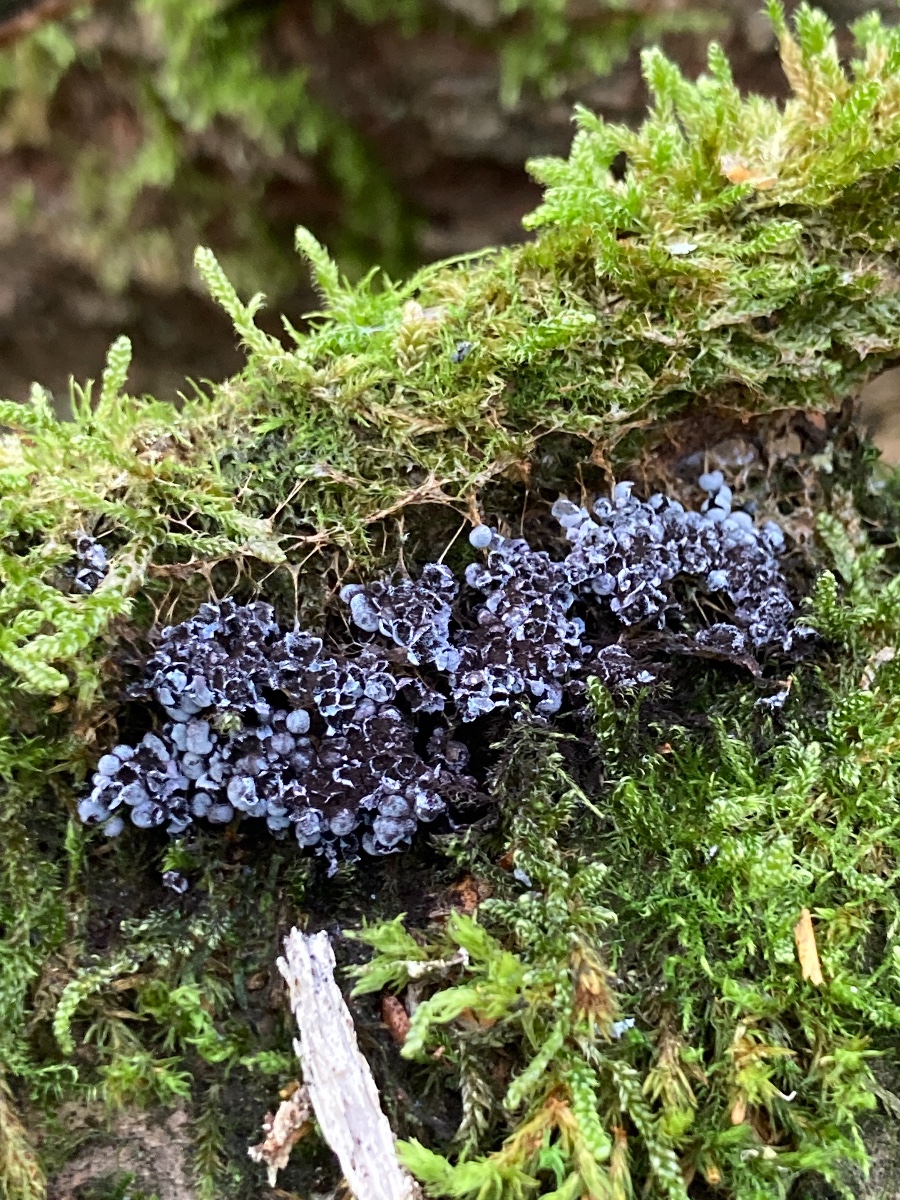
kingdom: Protozoa
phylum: Mycetozoa
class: Myxomycetes
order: Physarales
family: Physaraceae
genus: Badhamia
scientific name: Badhamia utricularis
